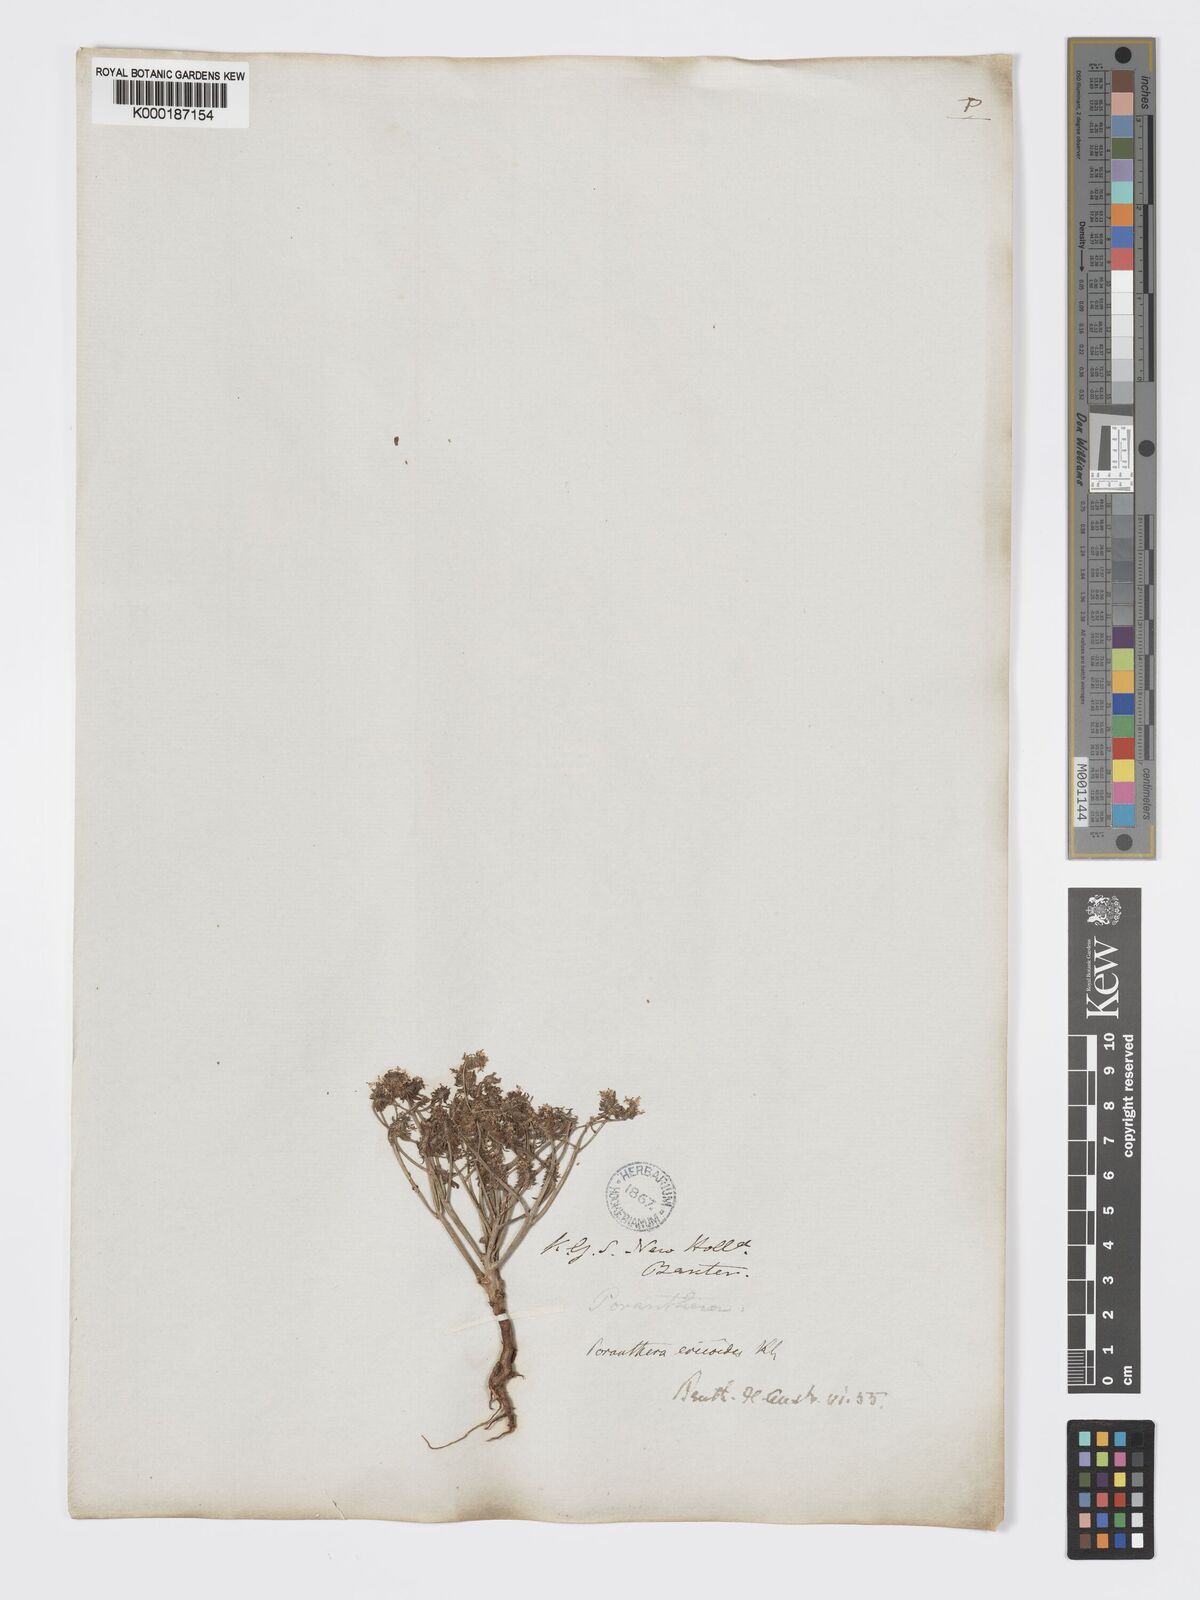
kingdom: Plantae
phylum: Tracheophyta
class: Magnoliopsida
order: Malpighiales
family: Phyllanthaceae
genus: Poranthera
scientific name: Poranthera ericoides
